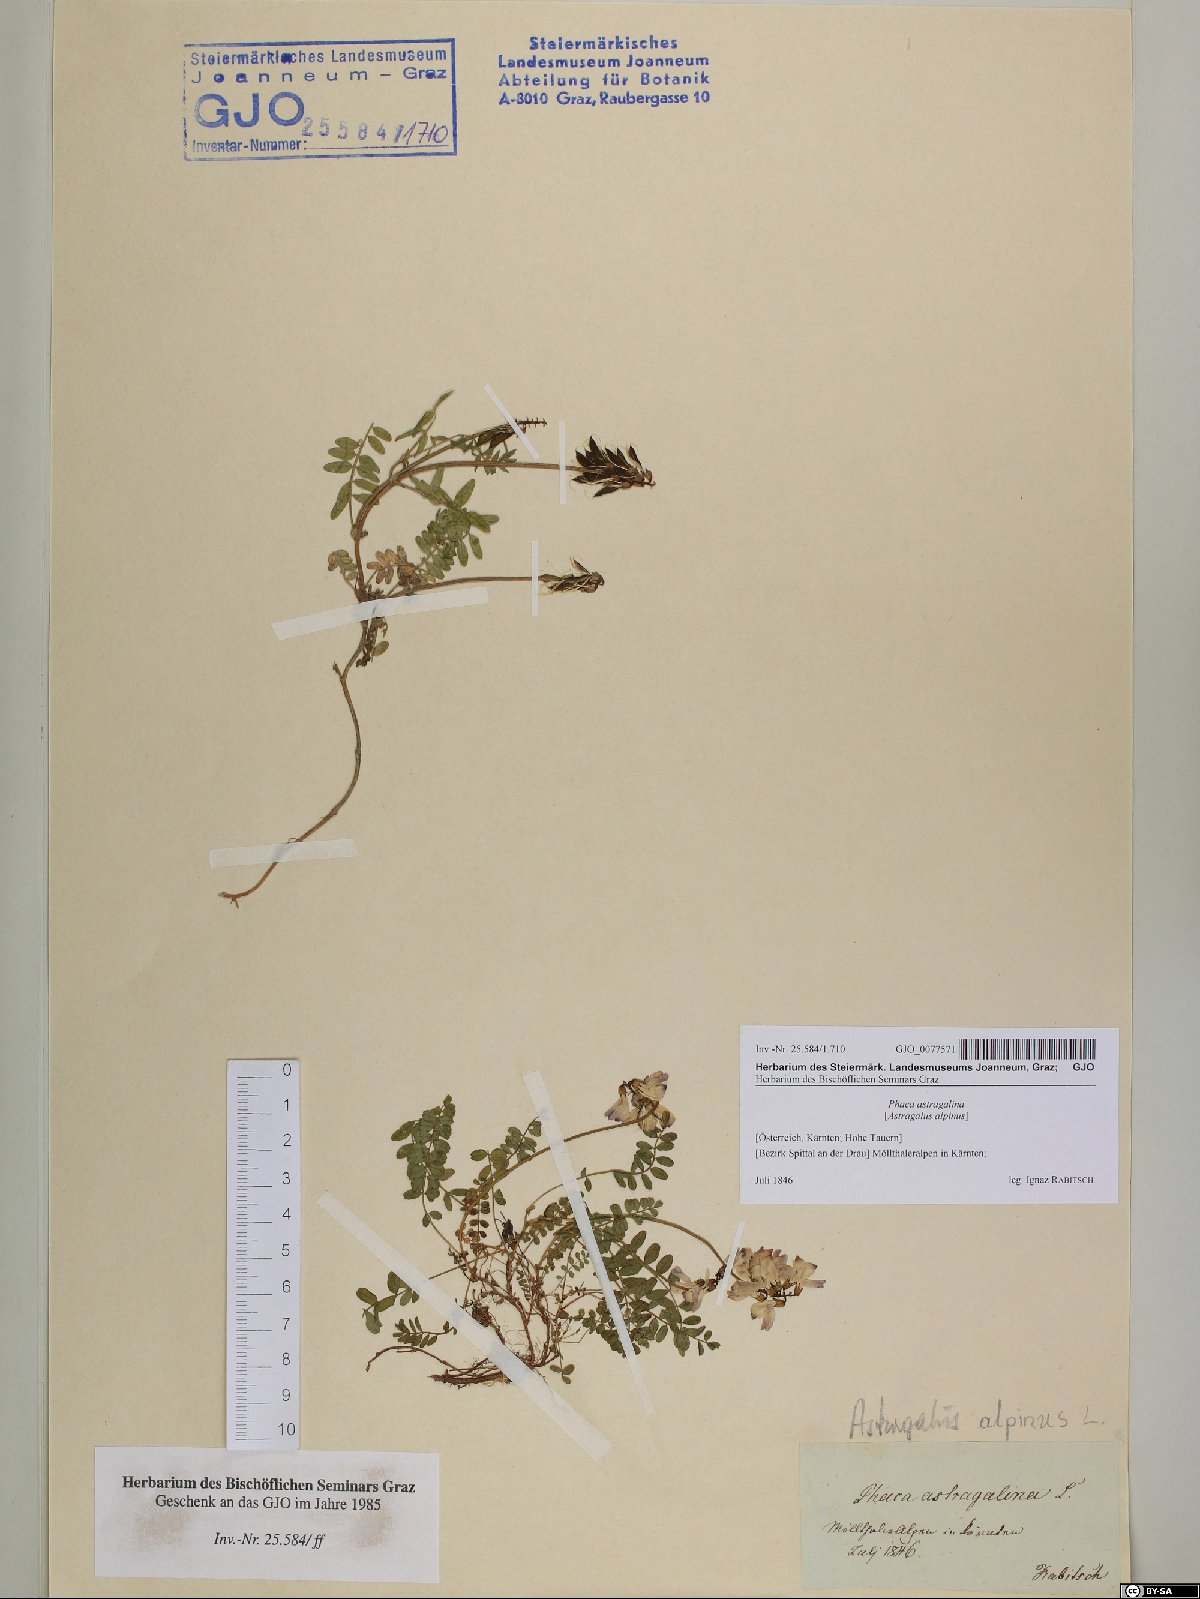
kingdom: Plantae
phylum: Tracheophyta
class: Magnoliopsida
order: Fabales
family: Fabaceae
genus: Astragalus
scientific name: Astragalus alpinus
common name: Alpine milk-vetch
